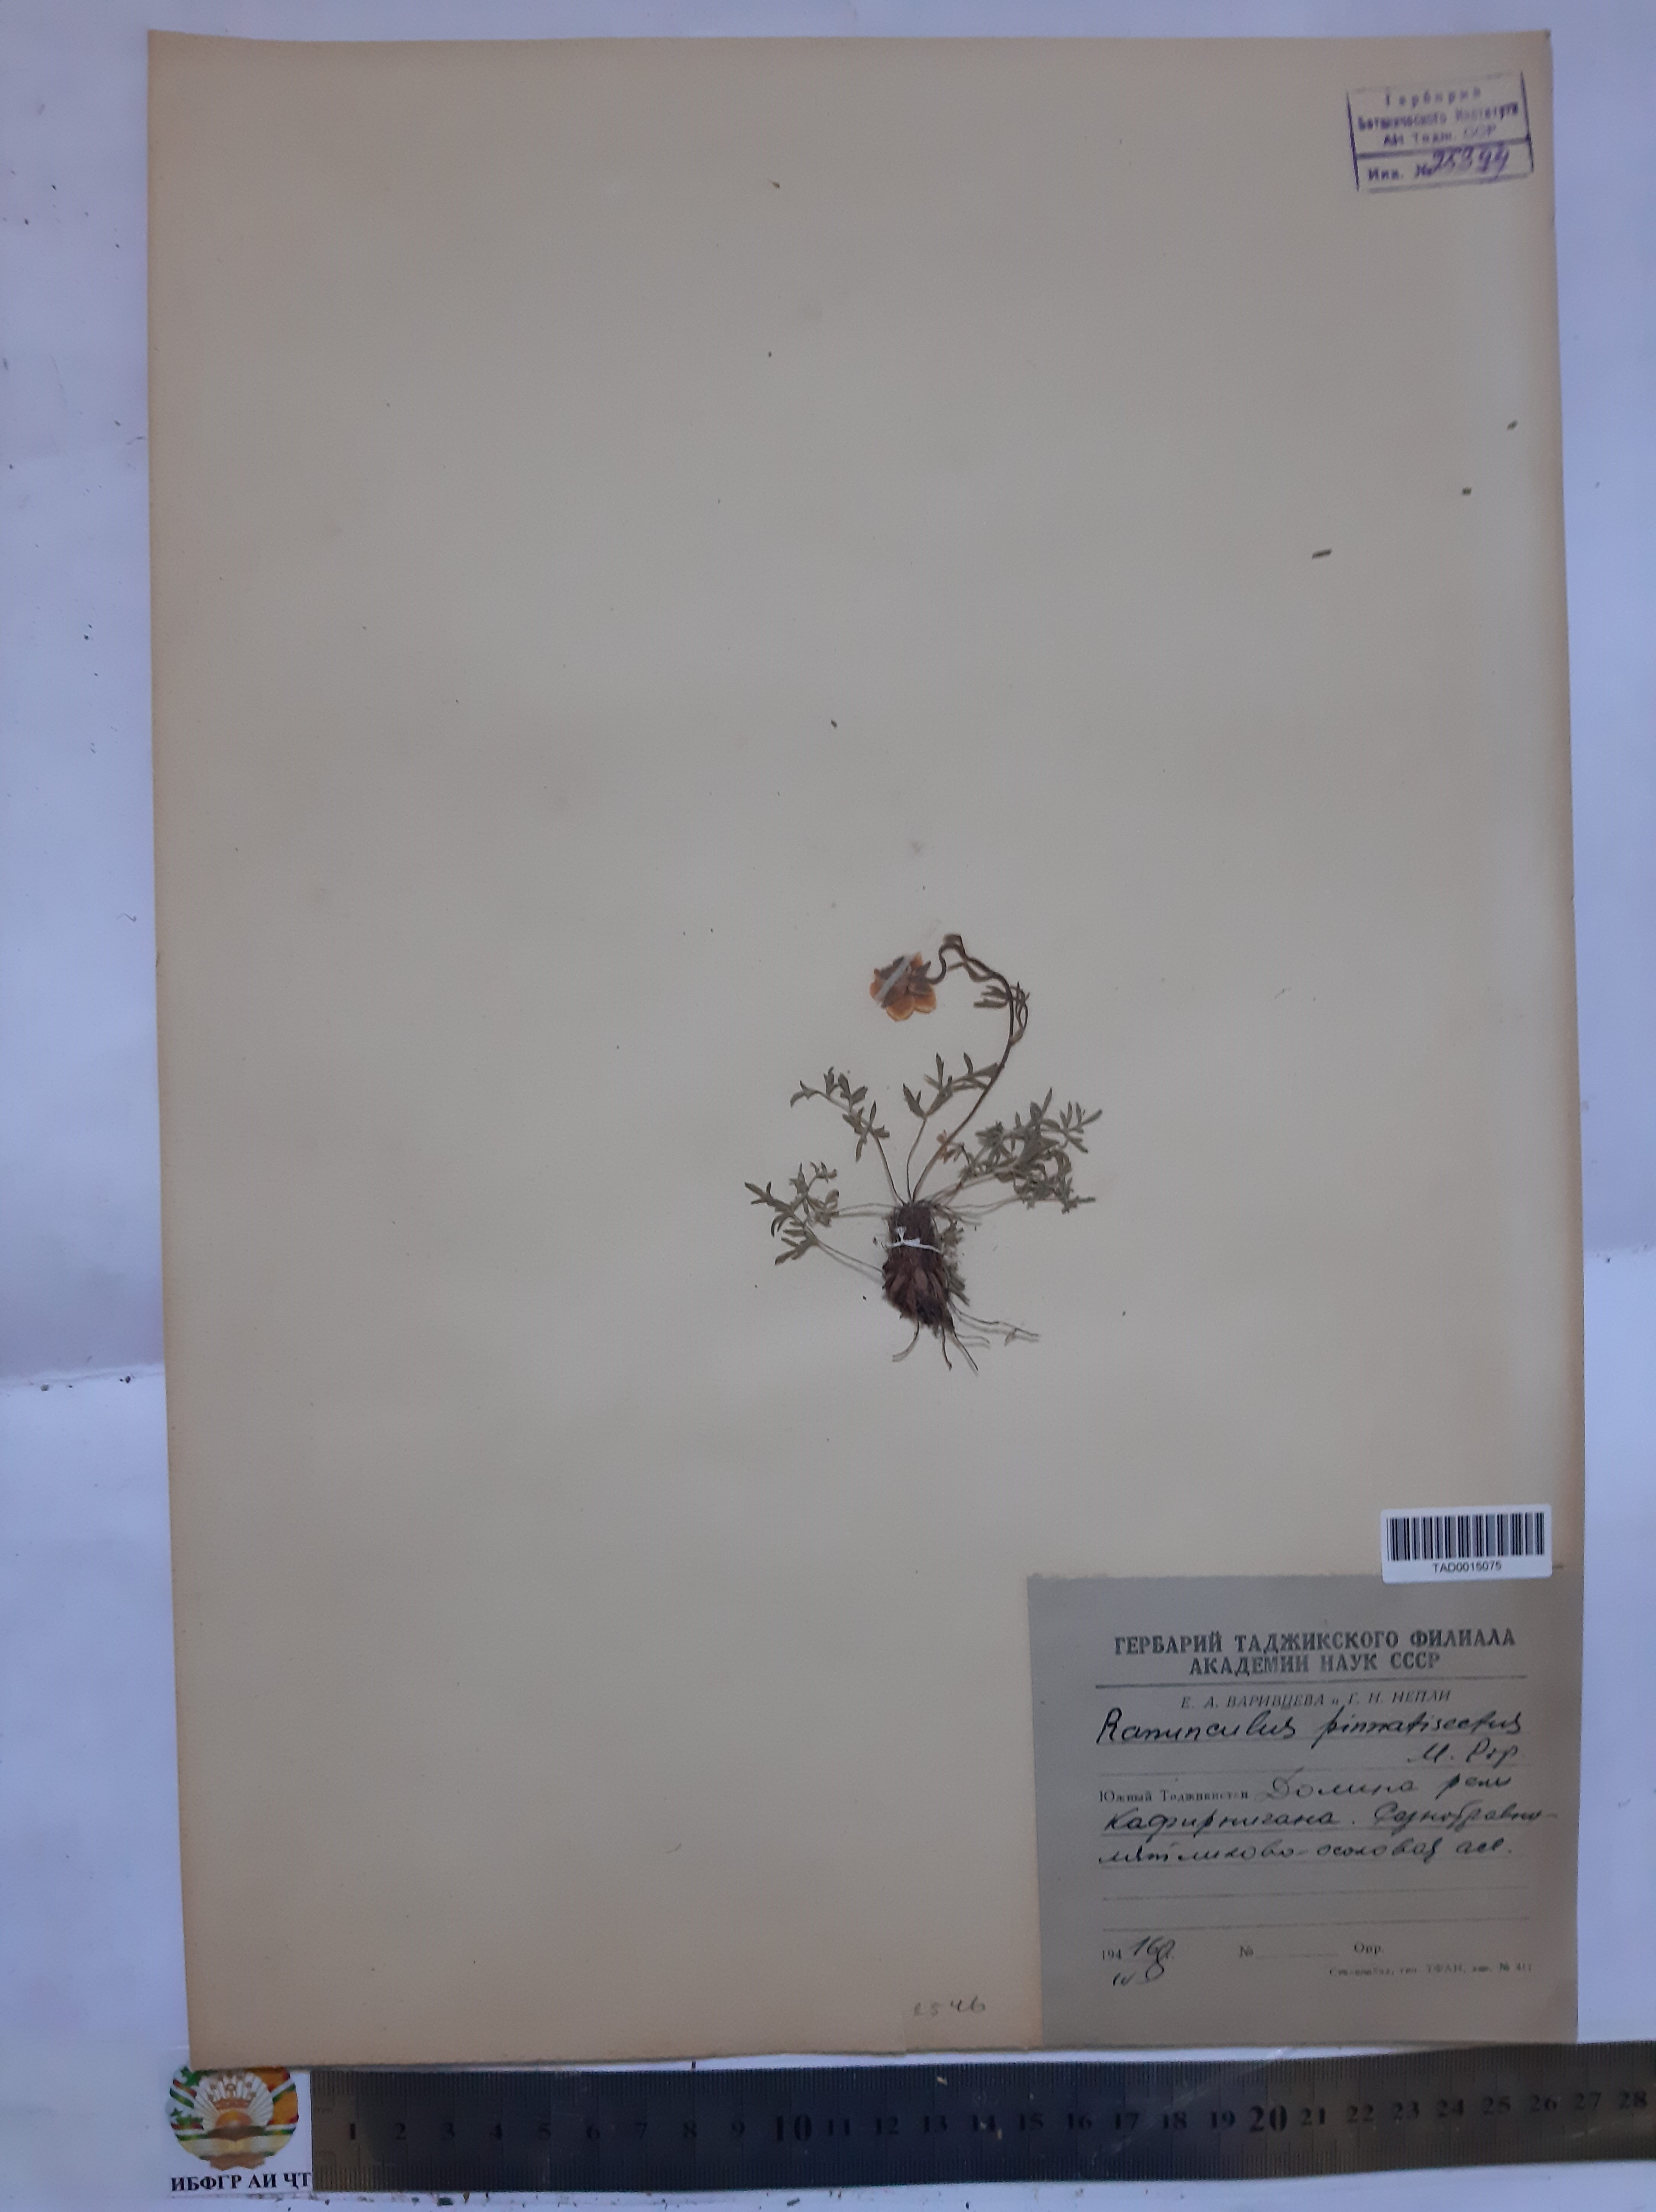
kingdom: Plantae
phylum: Tracheophyta
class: Magnoliopsida
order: Ranunculales
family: Ranunculaceae
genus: Ranunculus
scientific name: Ranunculus pinnatisectus
